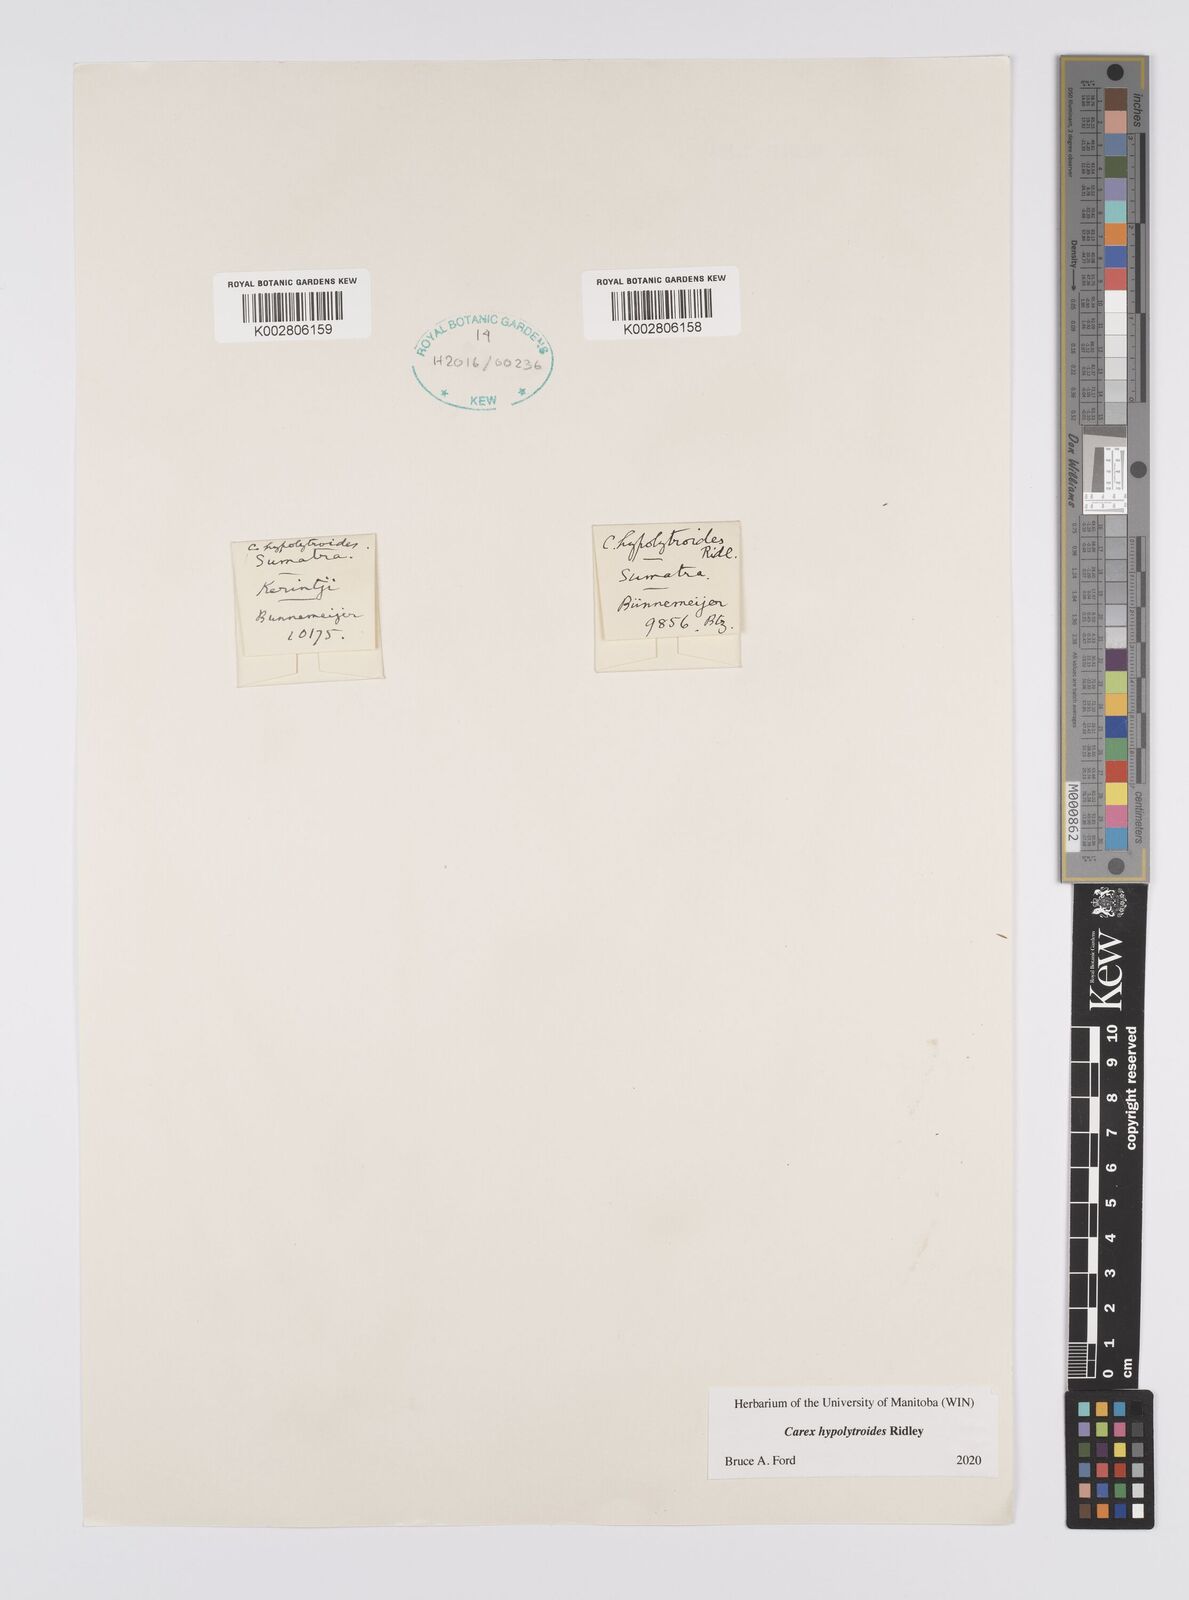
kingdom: Plantae
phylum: Tracheophyta
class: Liliopsida
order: Poales
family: Cyperaceae
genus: Carex
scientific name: Carex hypolytroides
